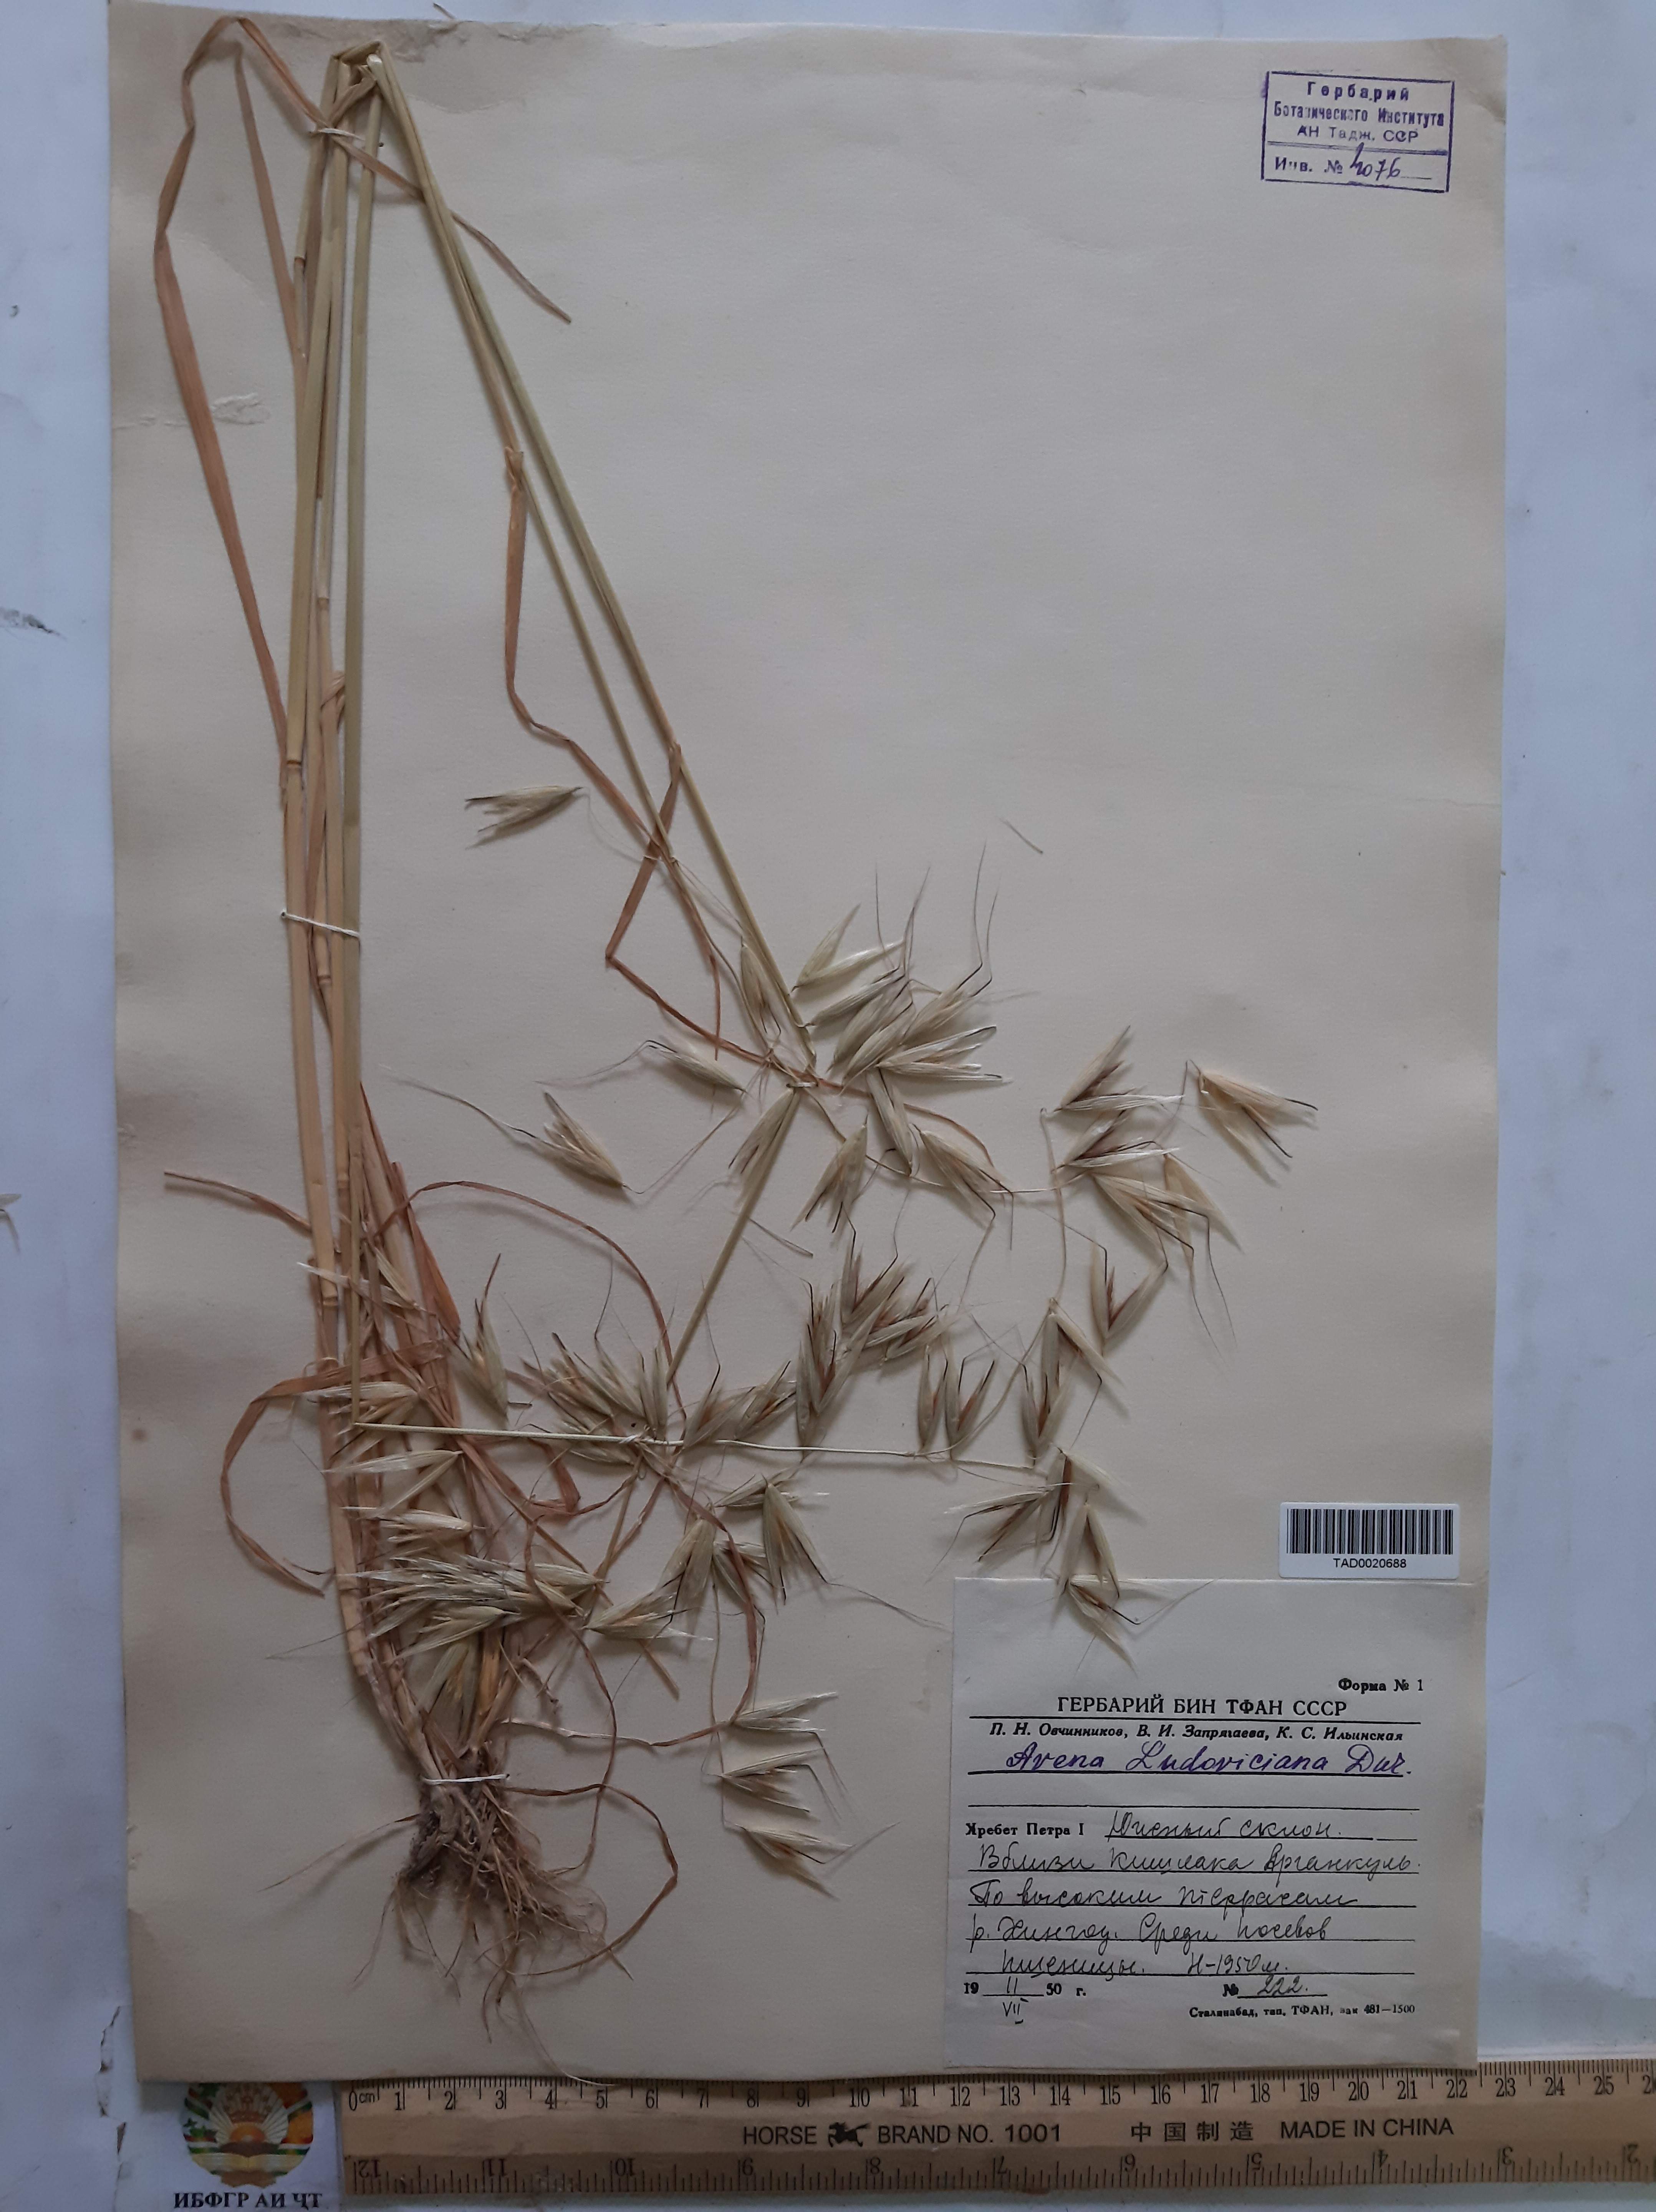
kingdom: Plantae
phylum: Tracheophyta
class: Liliopsida
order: Poales
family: Poaceae
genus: Avena
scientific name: Avena sterilis
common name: Animated oat
